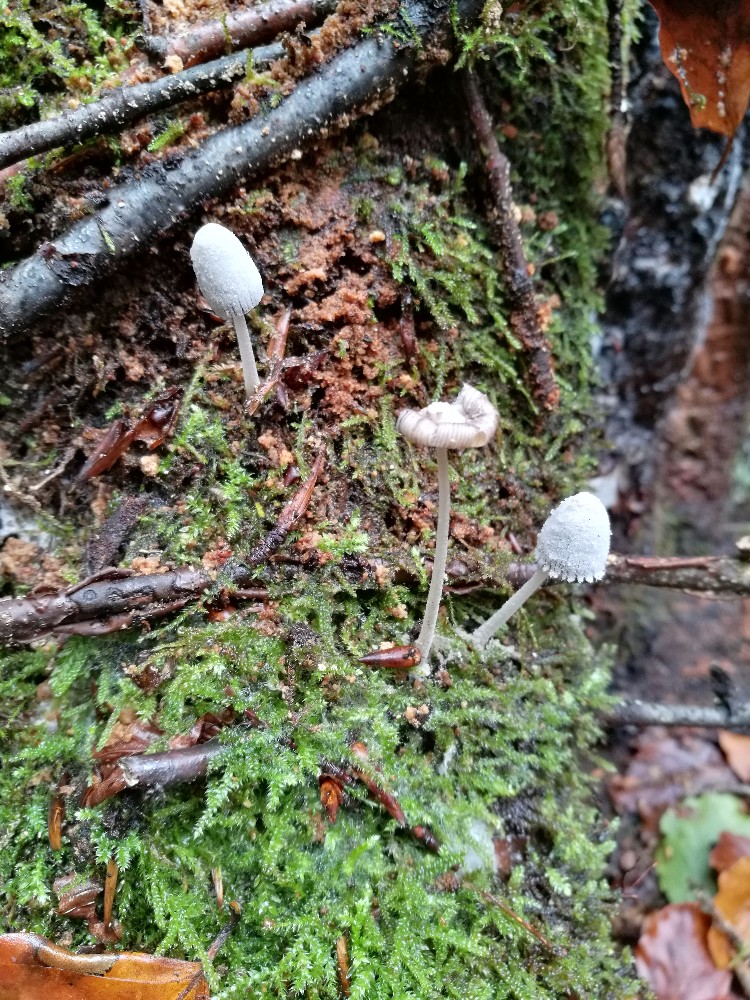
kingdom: Fungi
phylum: Basidiomycota
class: Agaricomycetes
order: Agaricales
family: Psathyrellaceae
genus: Coprinopsis
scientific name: Coprinopsis laanii
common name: stub-blækhat
